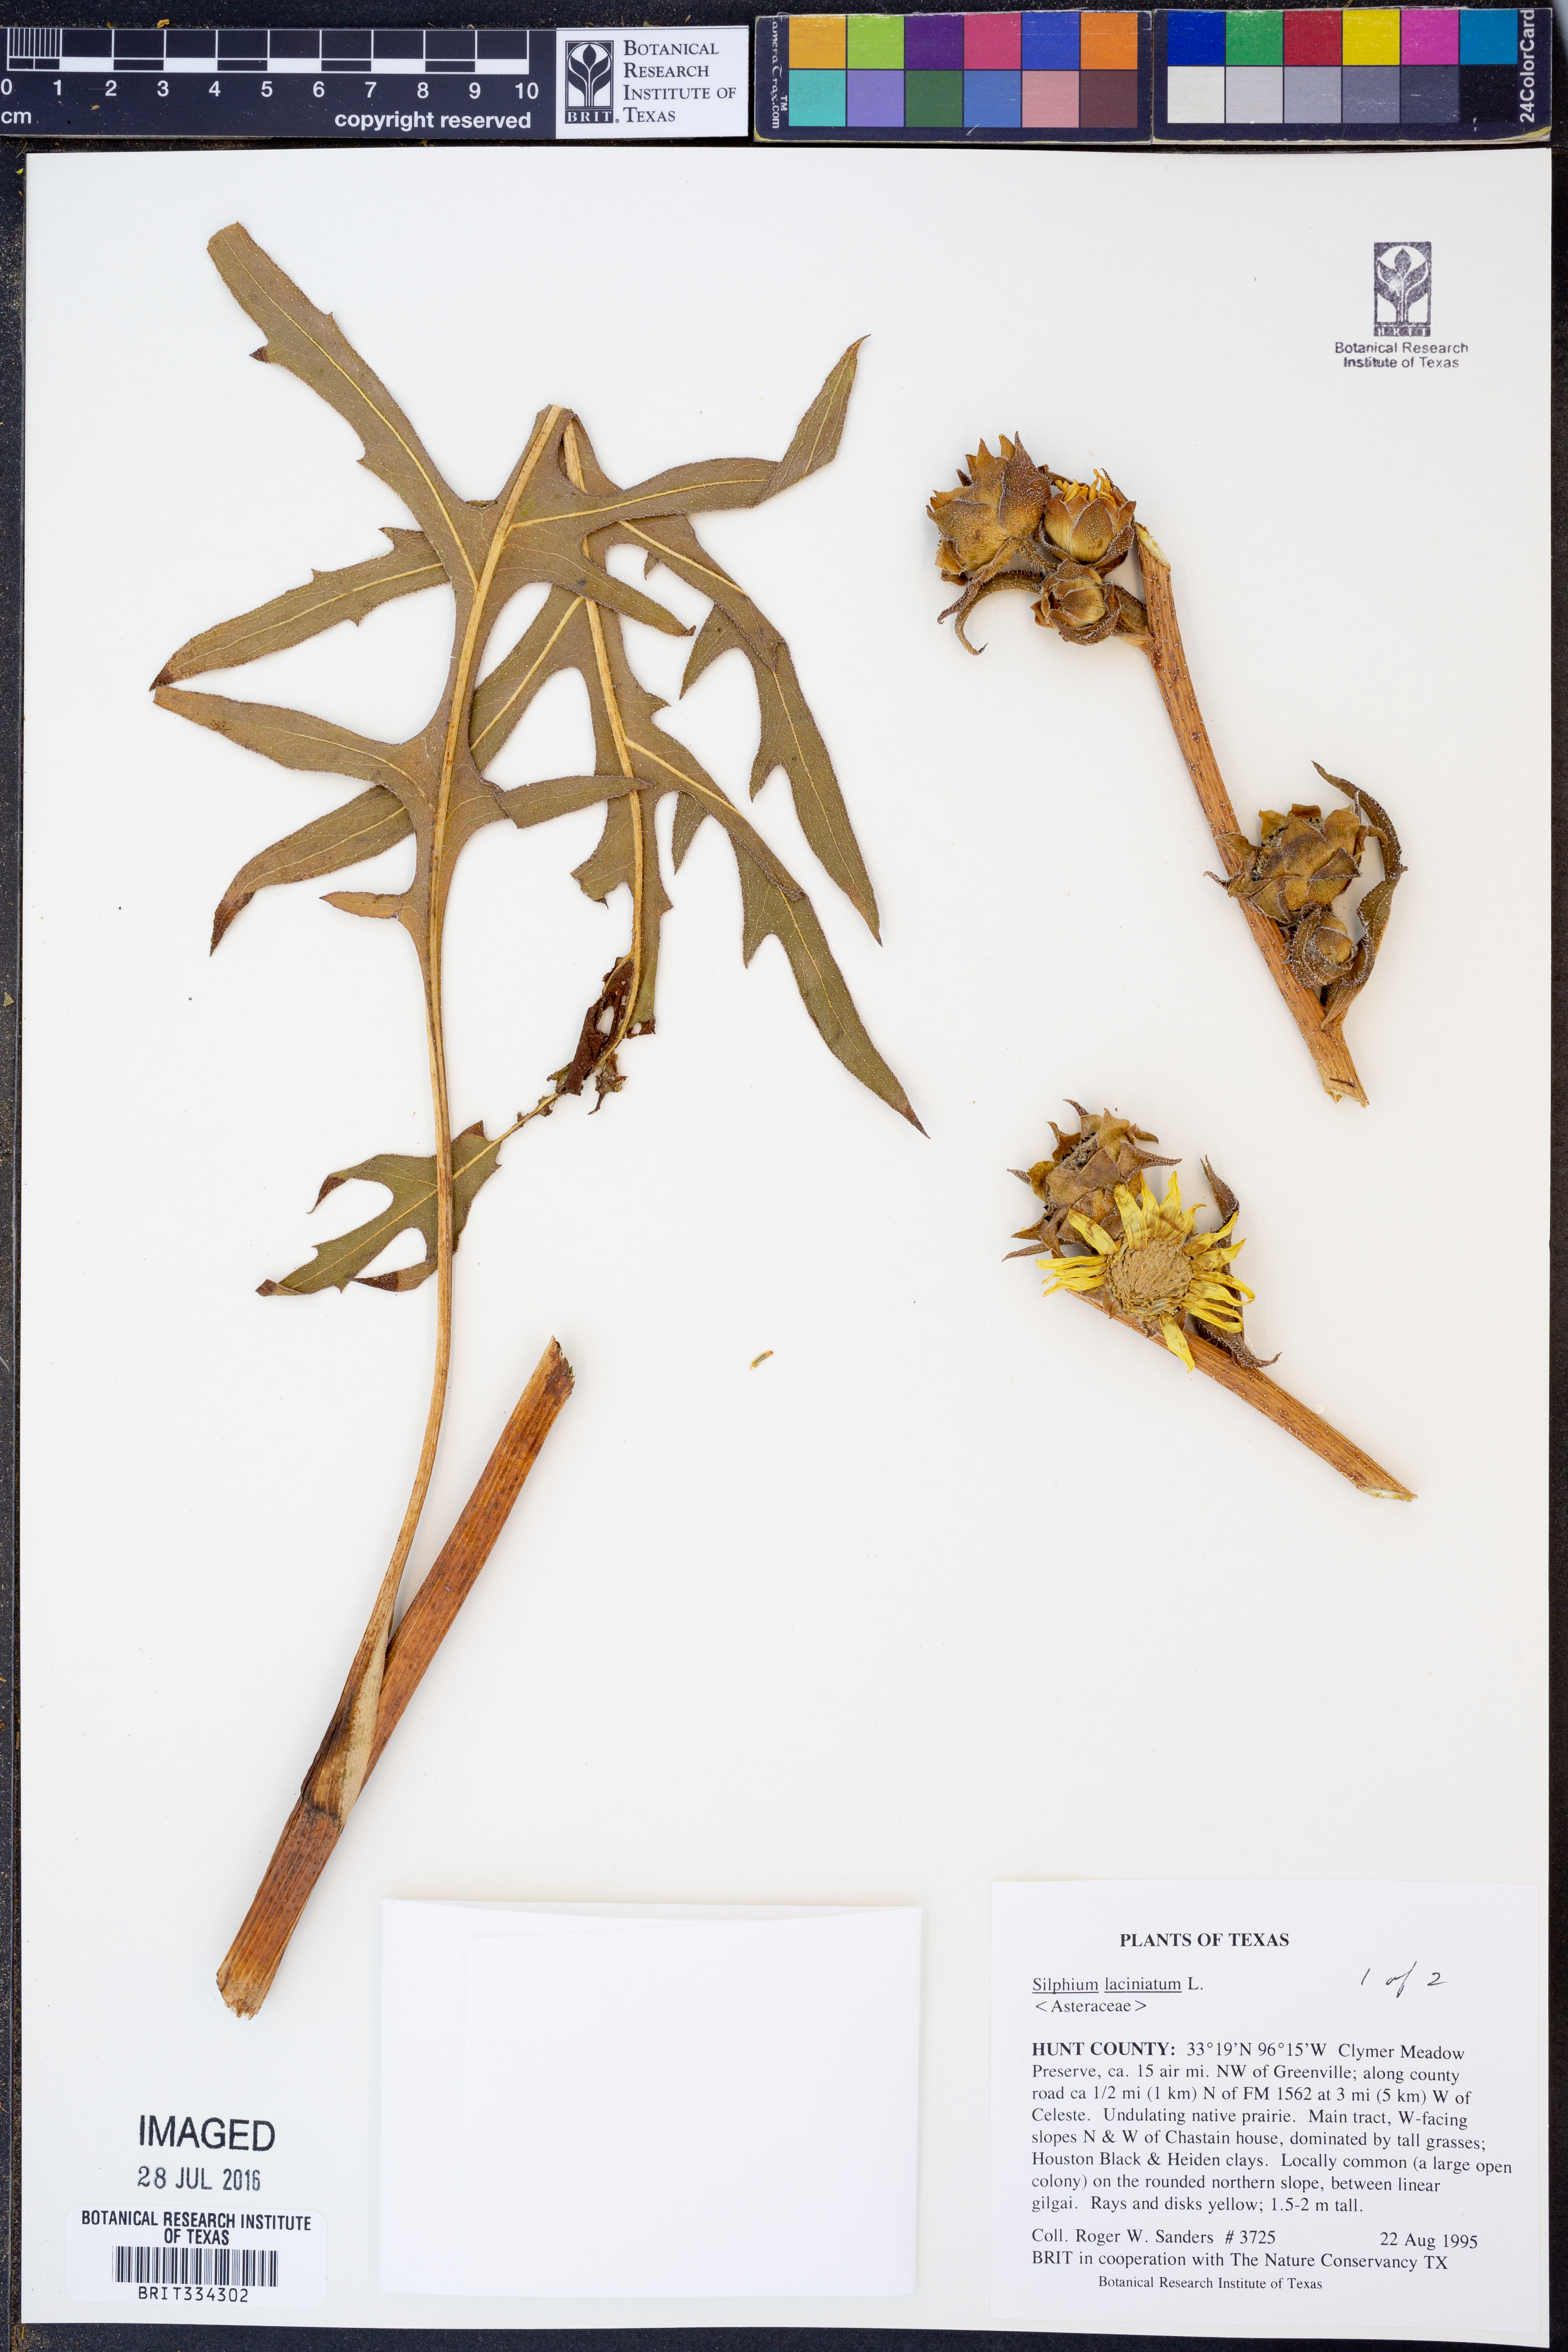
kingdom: Plantae
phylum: Tracheophyta
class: Magnoliopsida
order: Asterales
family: Asteraceae
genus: Silphium
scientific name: Silphium laciniatum
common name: Polarplant
